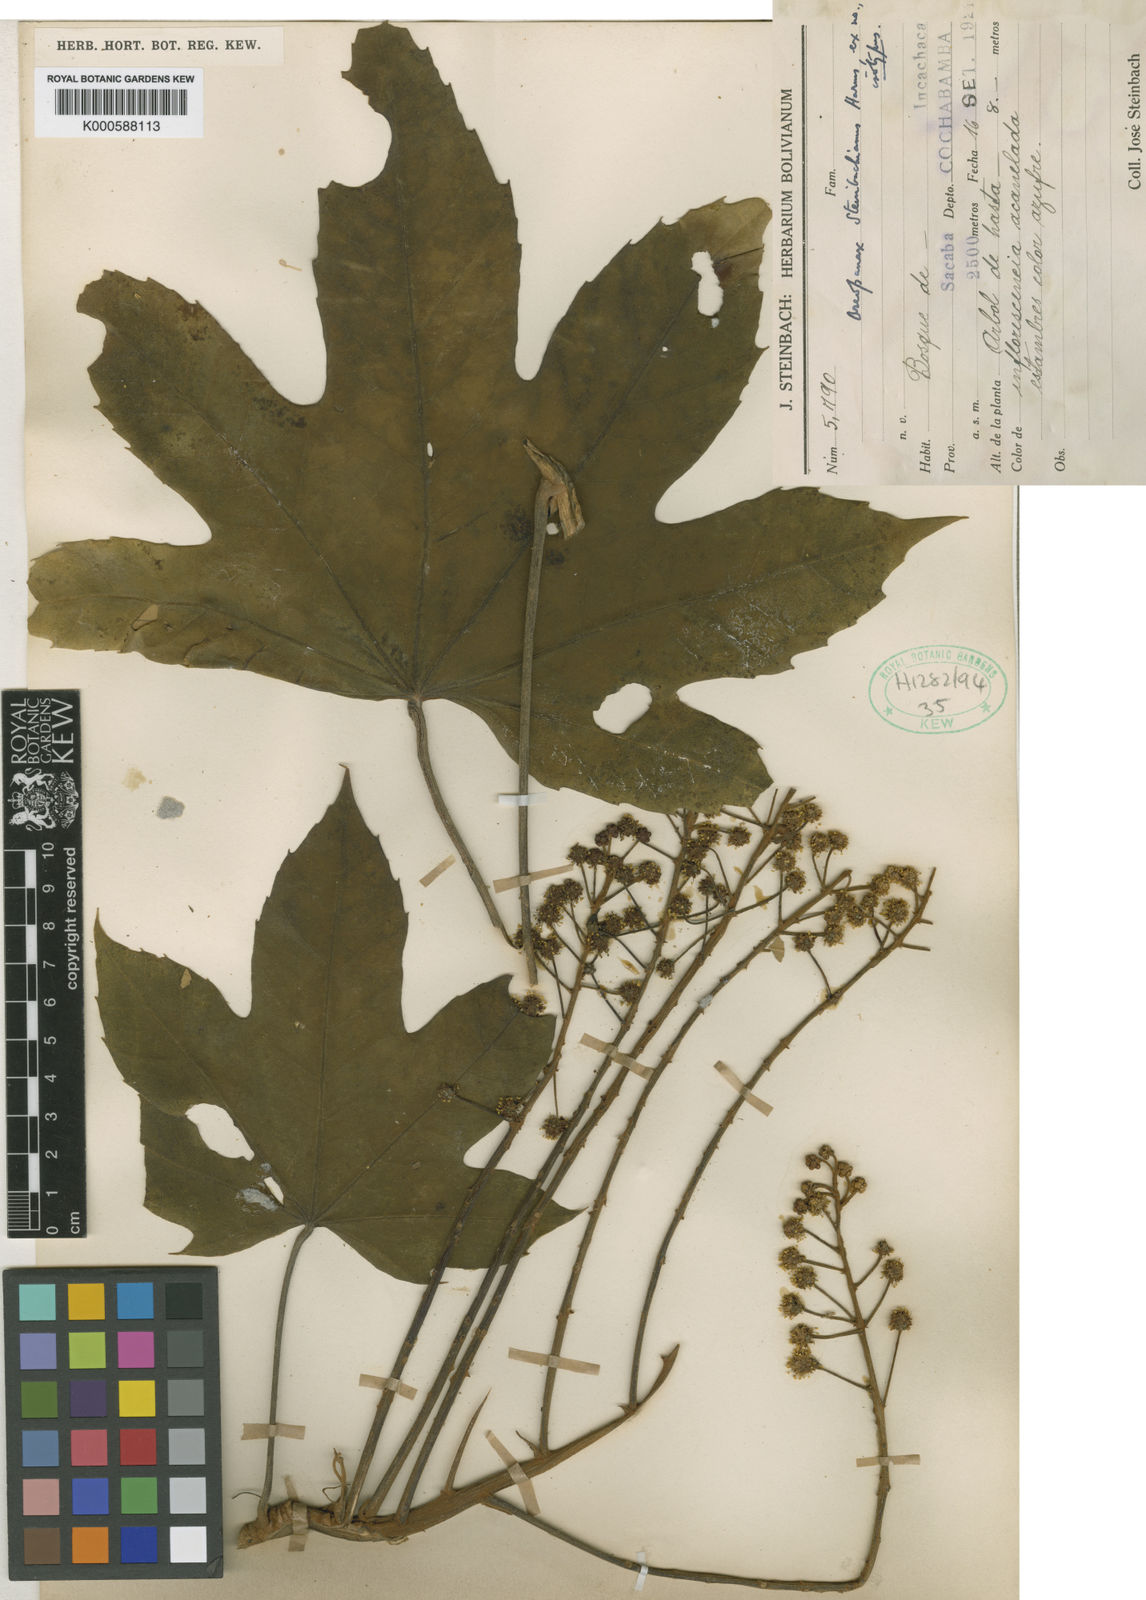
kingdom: Plantae
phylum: Tracheophyta
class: Magnoliopsida
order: Apiales
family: Araliaceae
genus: Oreopanax
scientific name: Oreopanax steinbachianus
